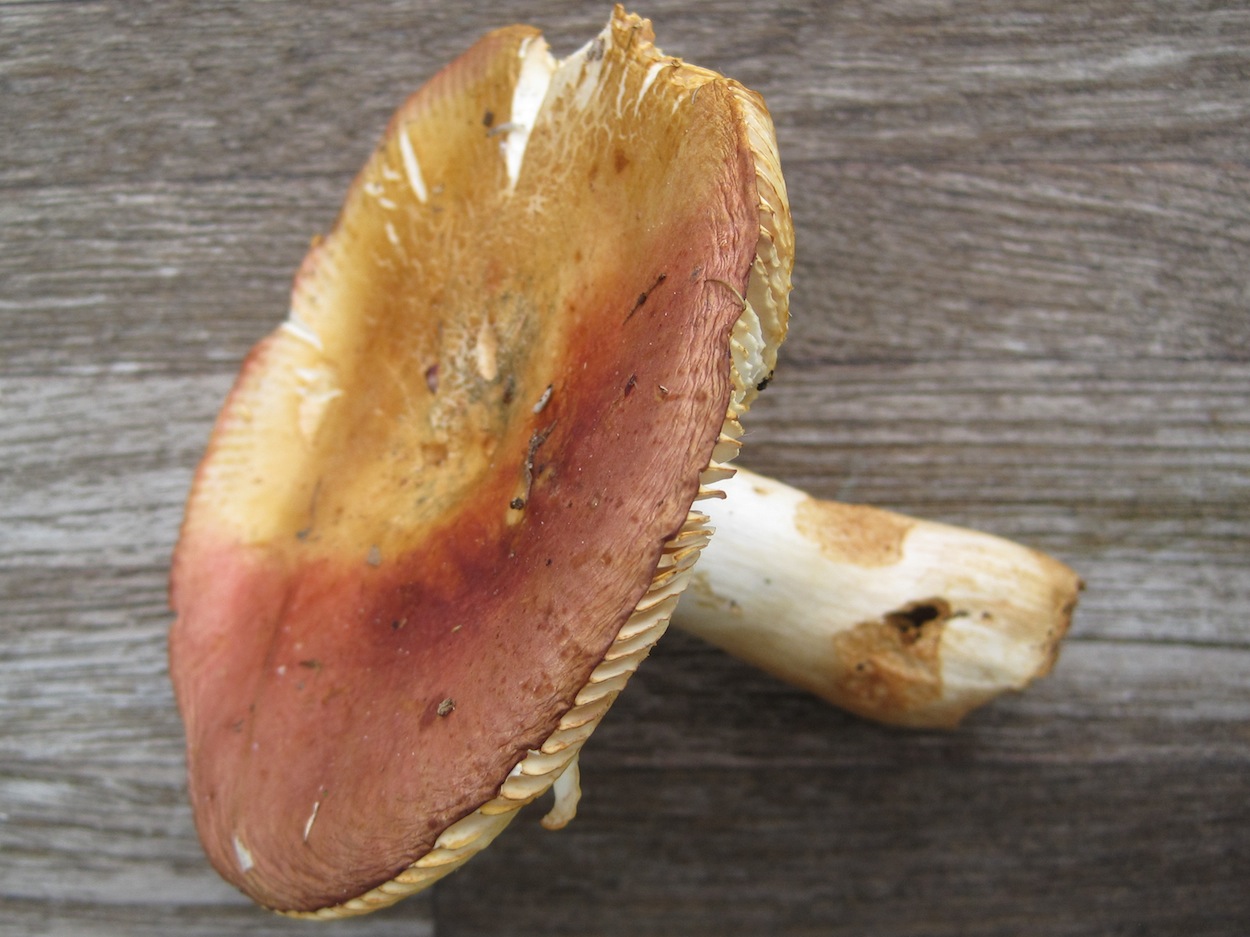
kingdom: Fungi
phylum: Basidiomycota
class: Agaricomycetes
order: Russulales
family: Russulaceae
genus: Russula
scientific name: Russula melliolens
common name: honning-skørhat
